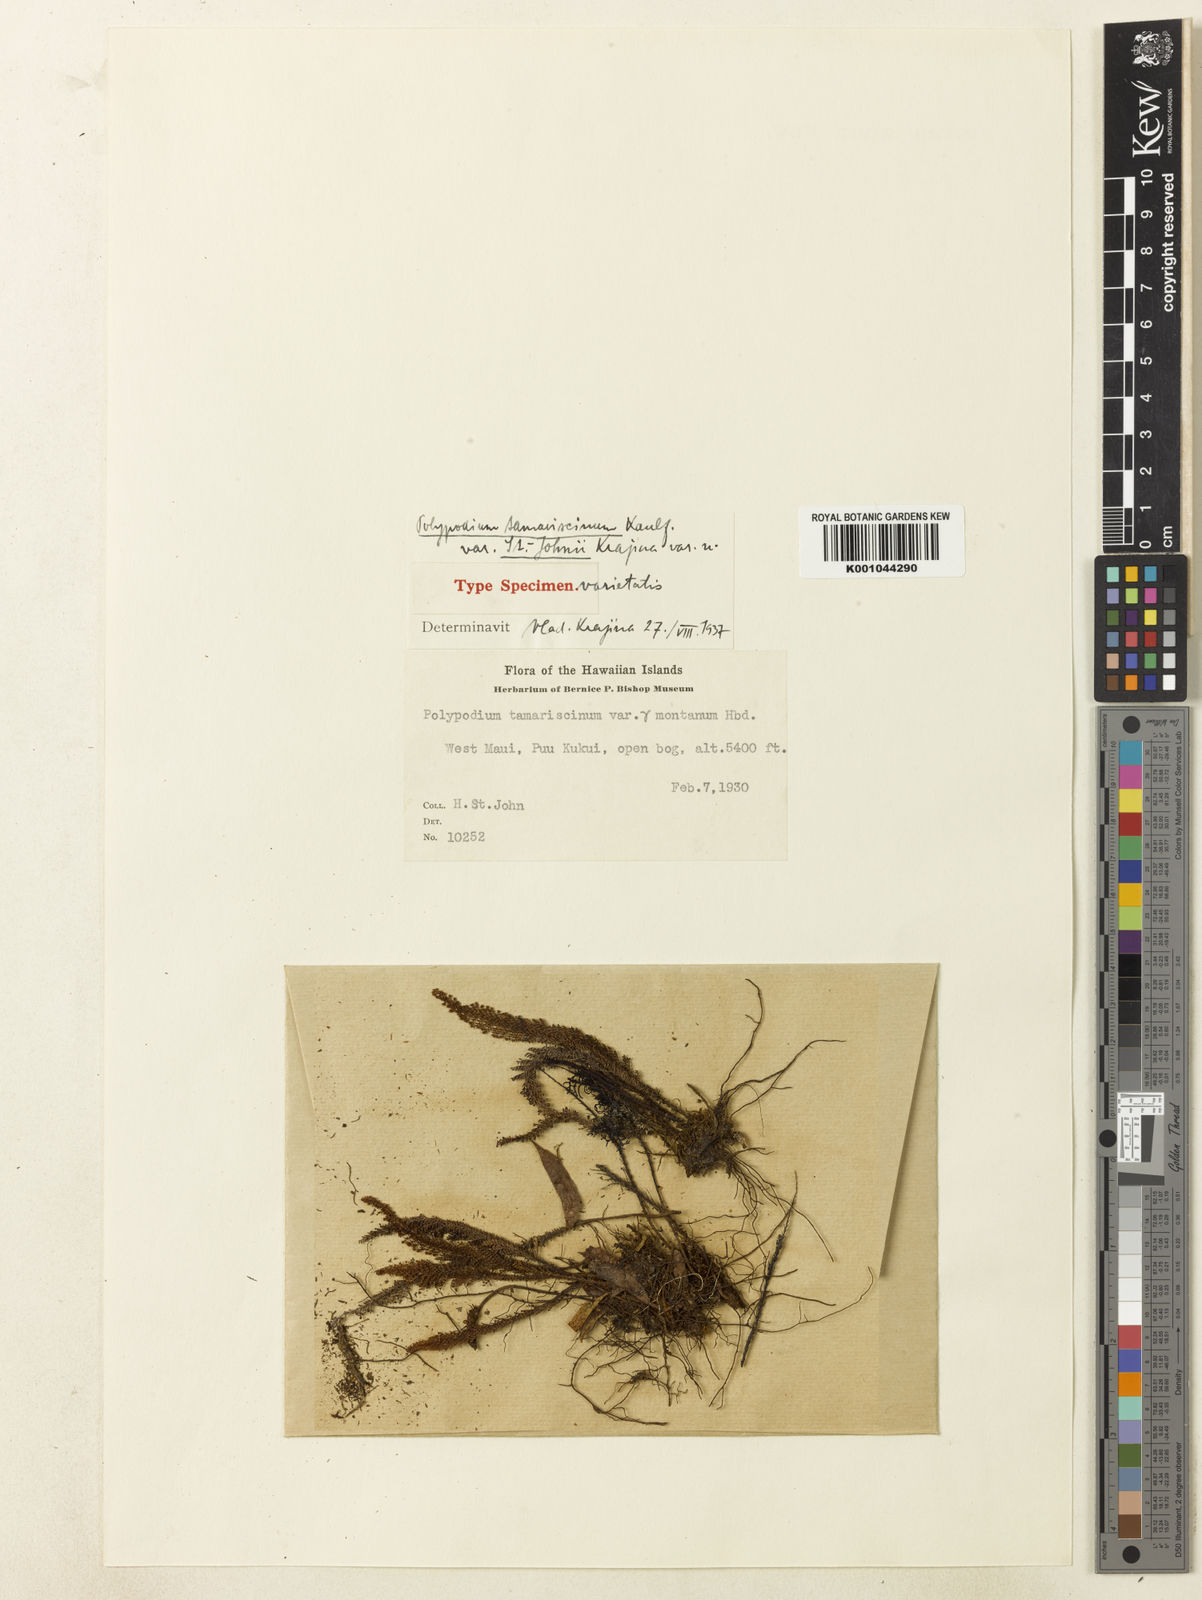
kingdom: Plantae
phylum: Tracheophyta
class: Polypodiopsida
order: Polypodiales
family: Polypodiaceae
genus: Adenophorus
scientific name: Adenophorus montanus
